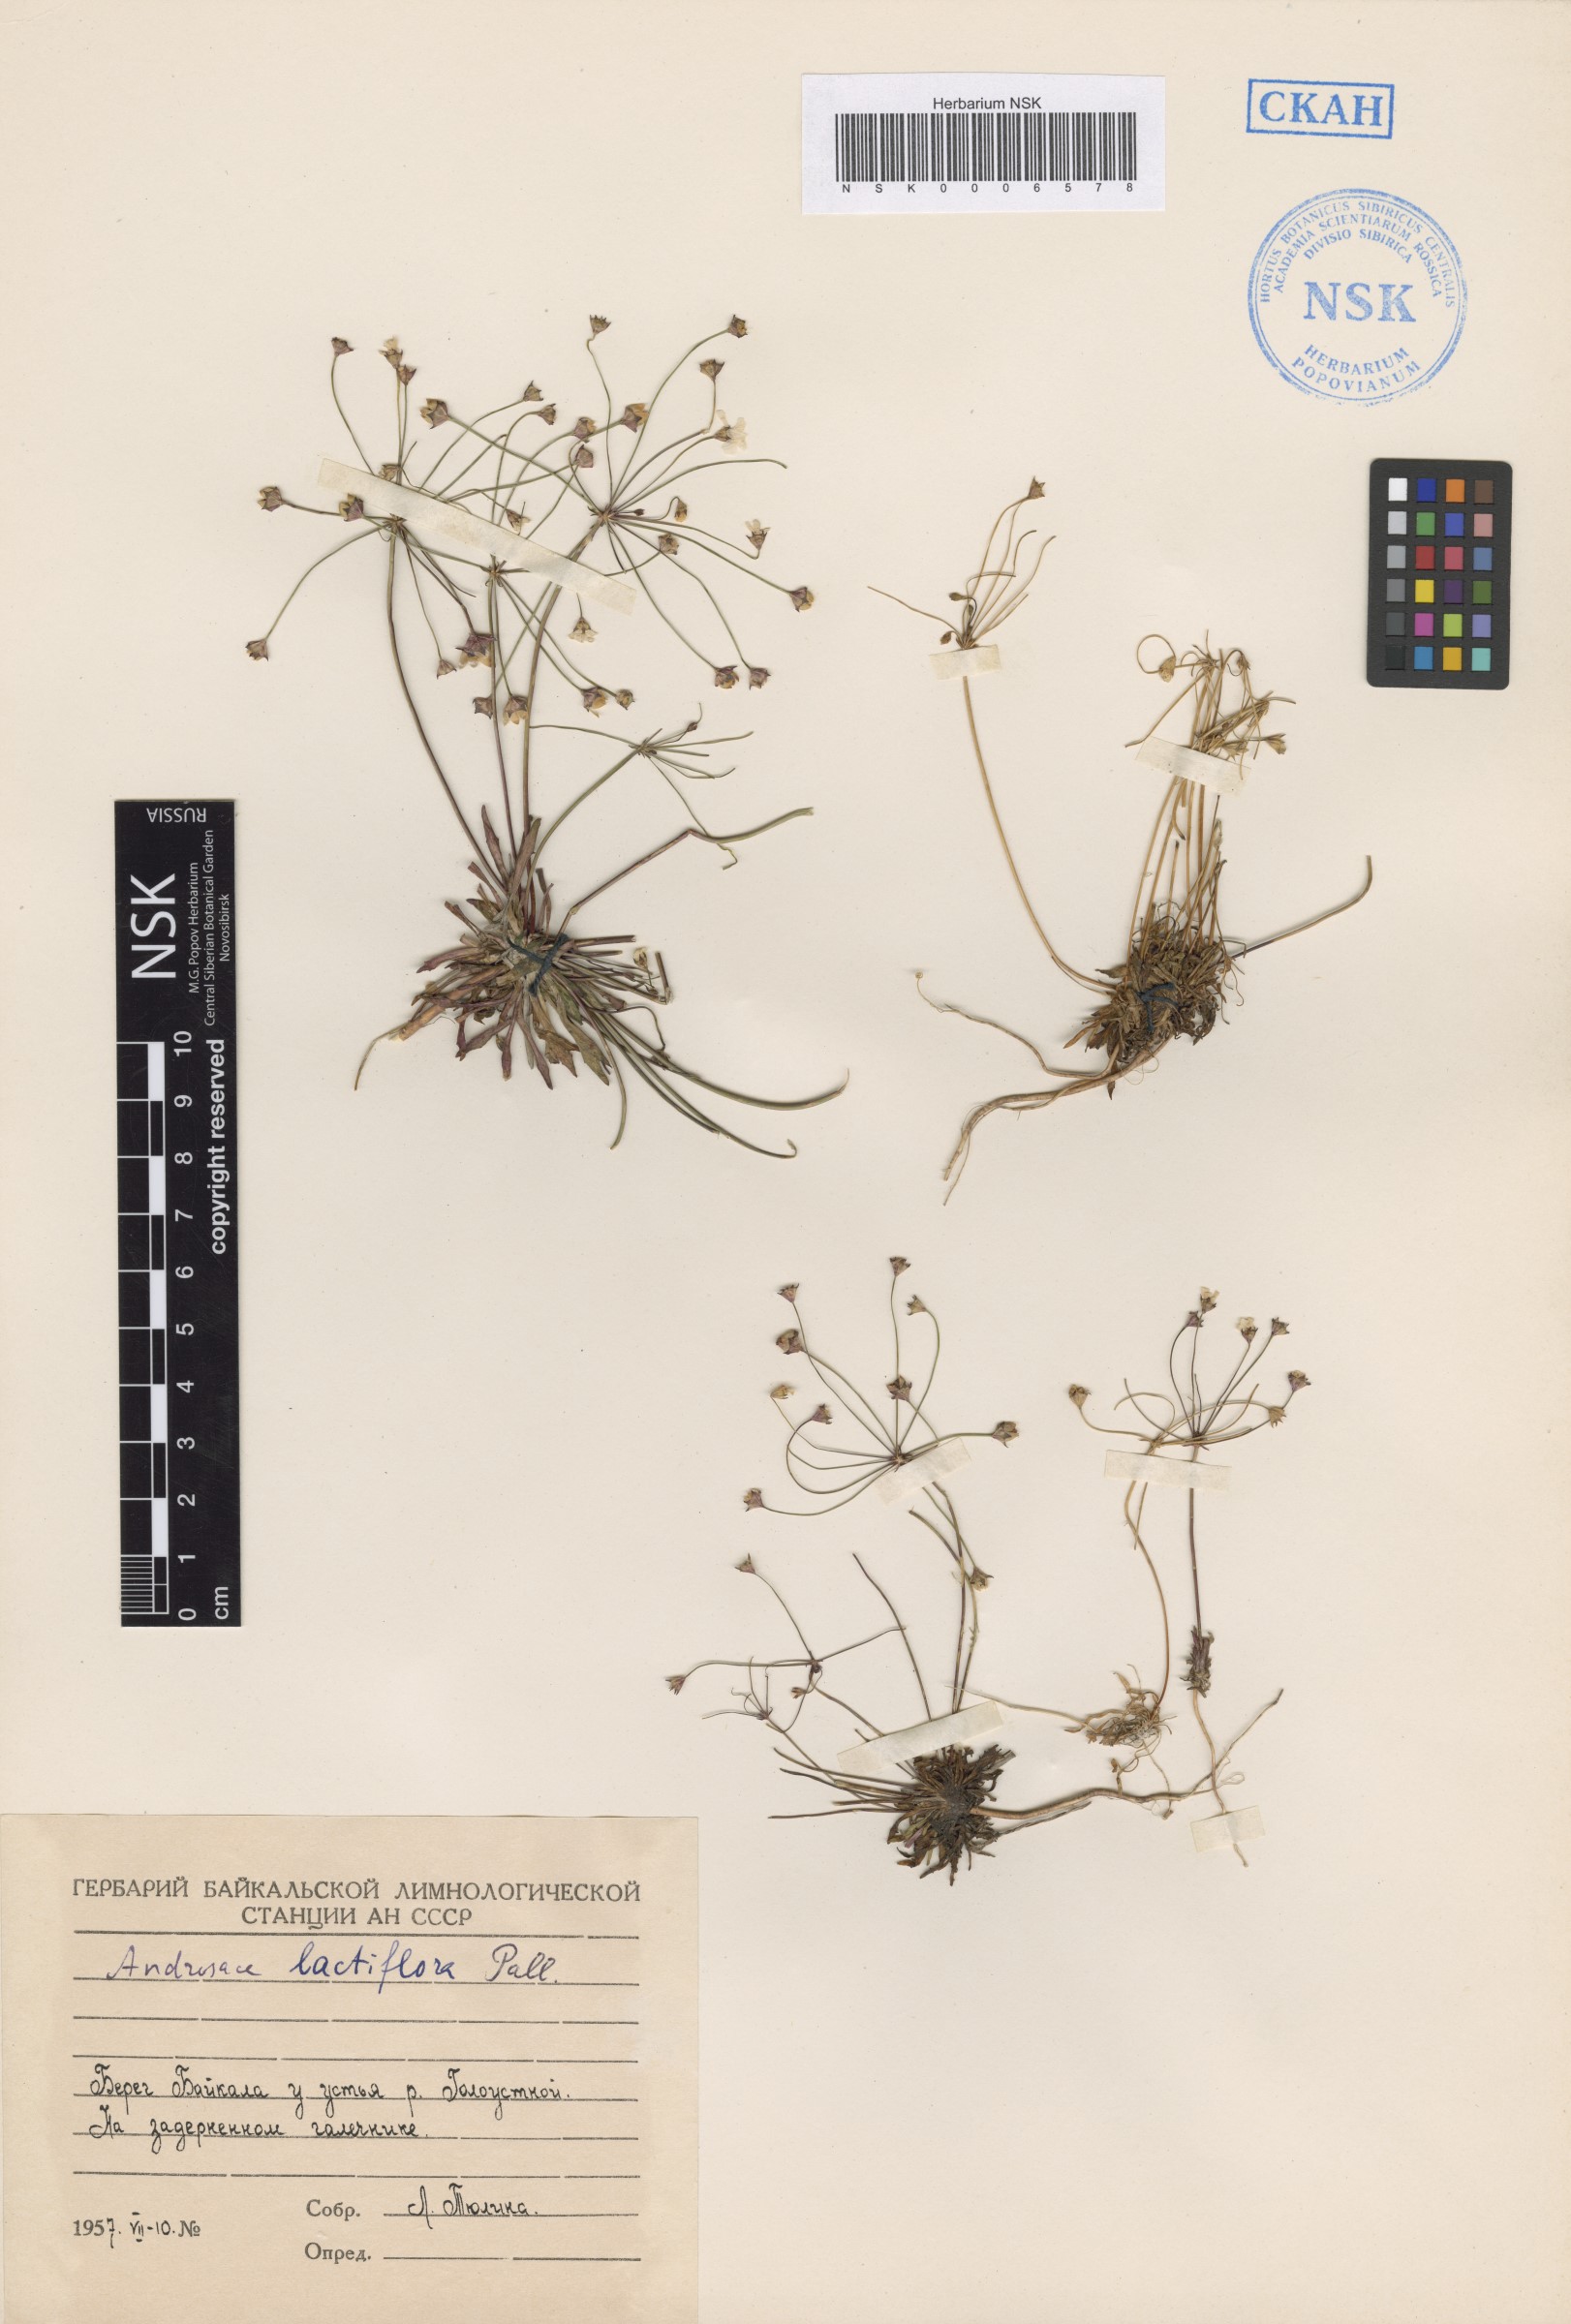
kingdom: Plantae
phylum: Tracheophyta
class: Magnoliopsida
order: Ericales
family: Primulaceae
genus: Androsace
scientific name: Androsace lactiflora
